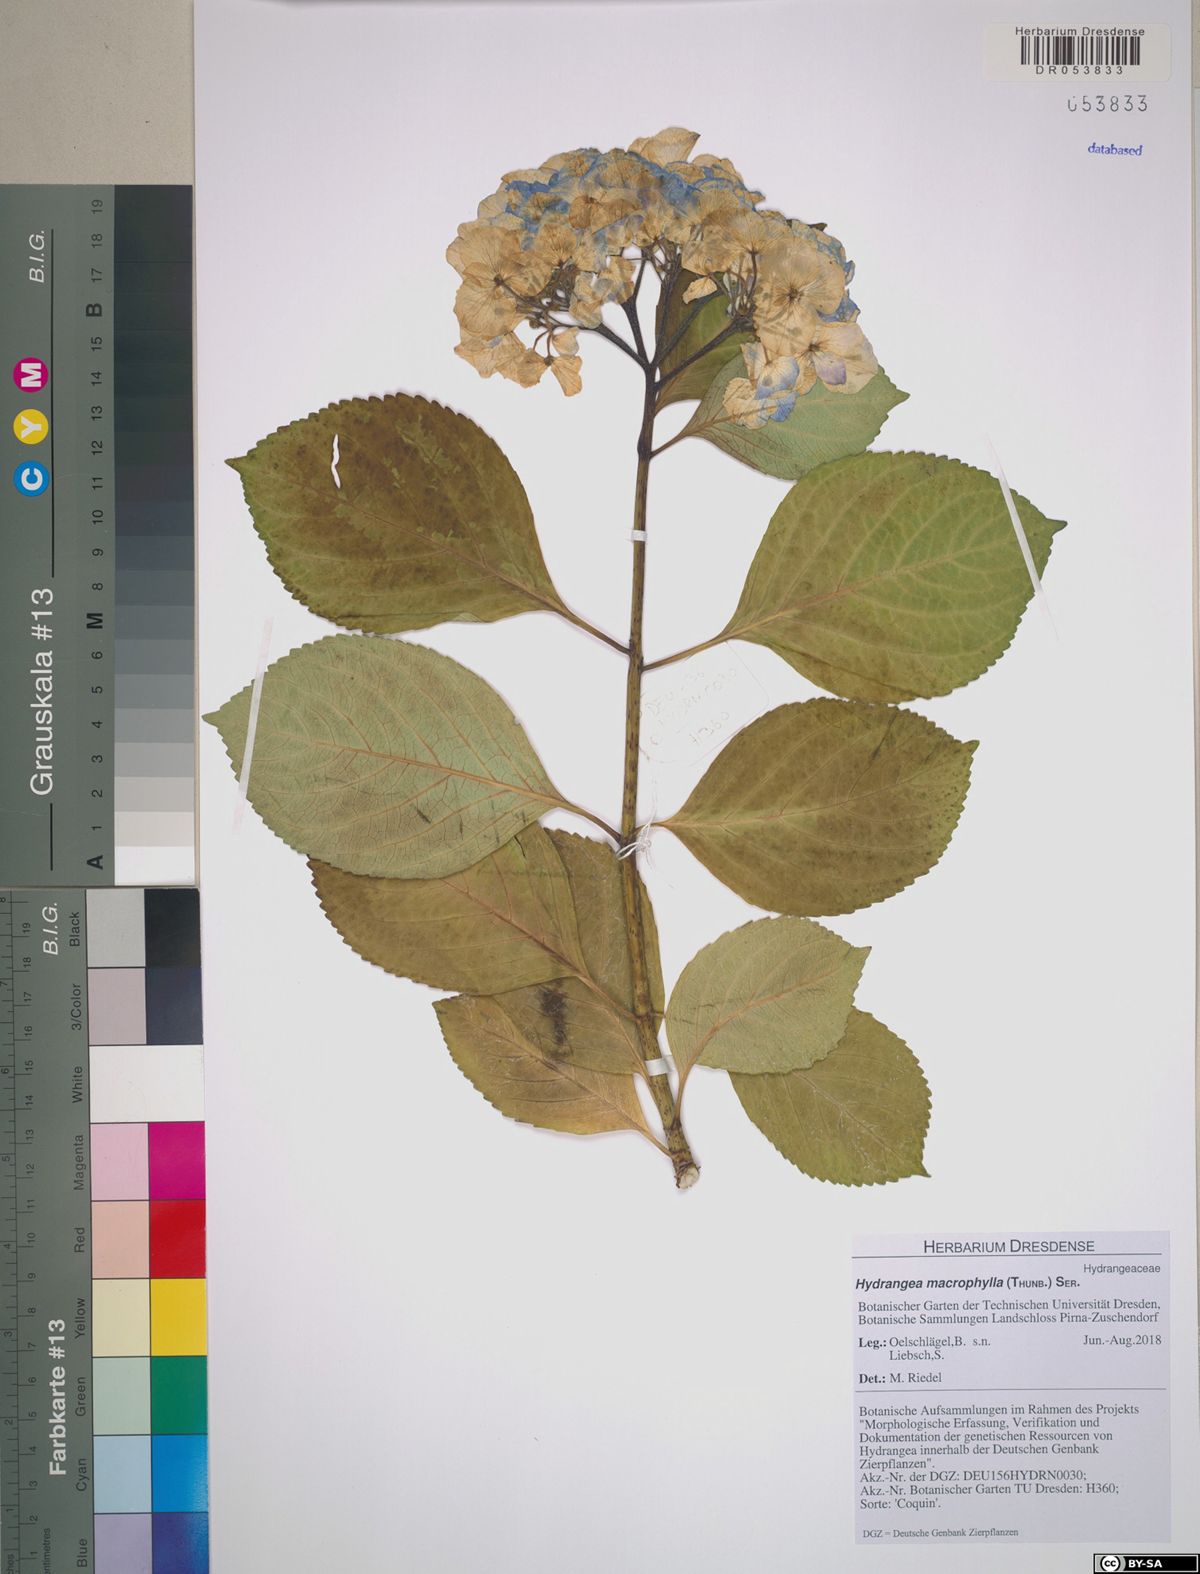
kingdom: Plantae
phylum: Tracheophyta
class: Magnoliopsida
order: Cornales
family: Hydrangeaceae
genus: Hydrangea
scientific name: Hydrangea macrophylla
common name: Hydrangea
